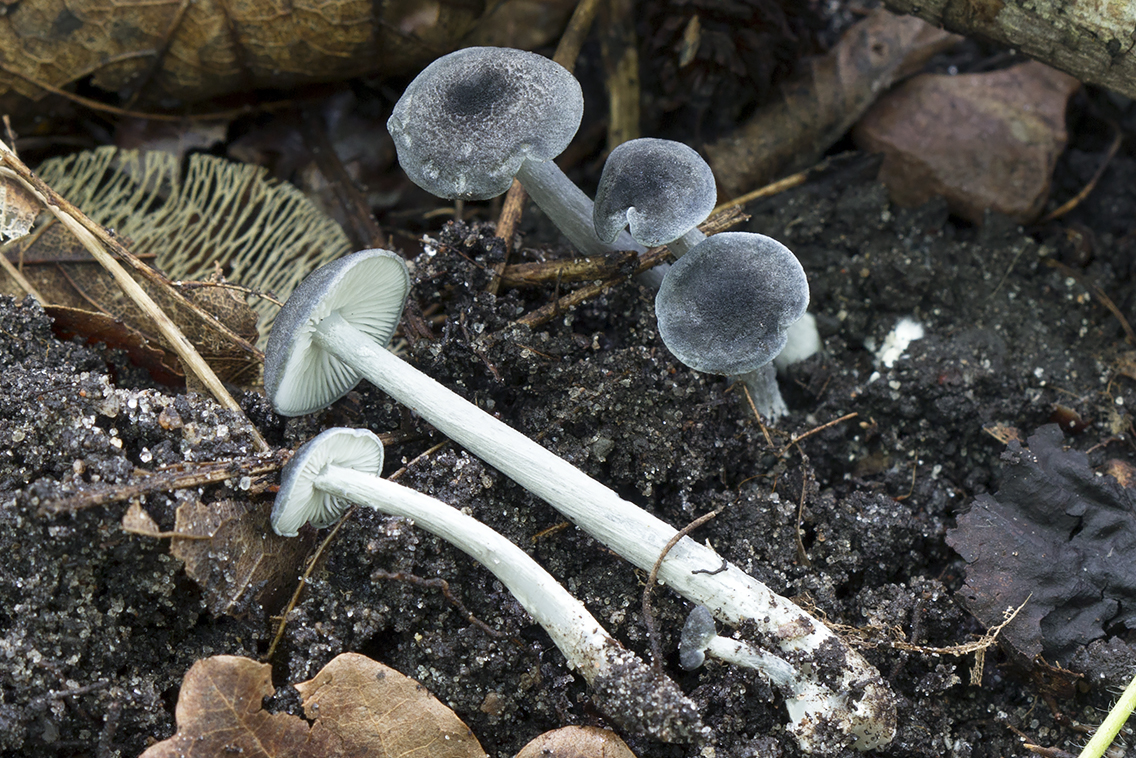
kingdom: Fungi
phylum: Basidiomycota
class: Agaricomycetes
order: Agaricales
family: Entolomataceae
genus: Entoloma
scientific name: Entoloma violaceoserrulatum
